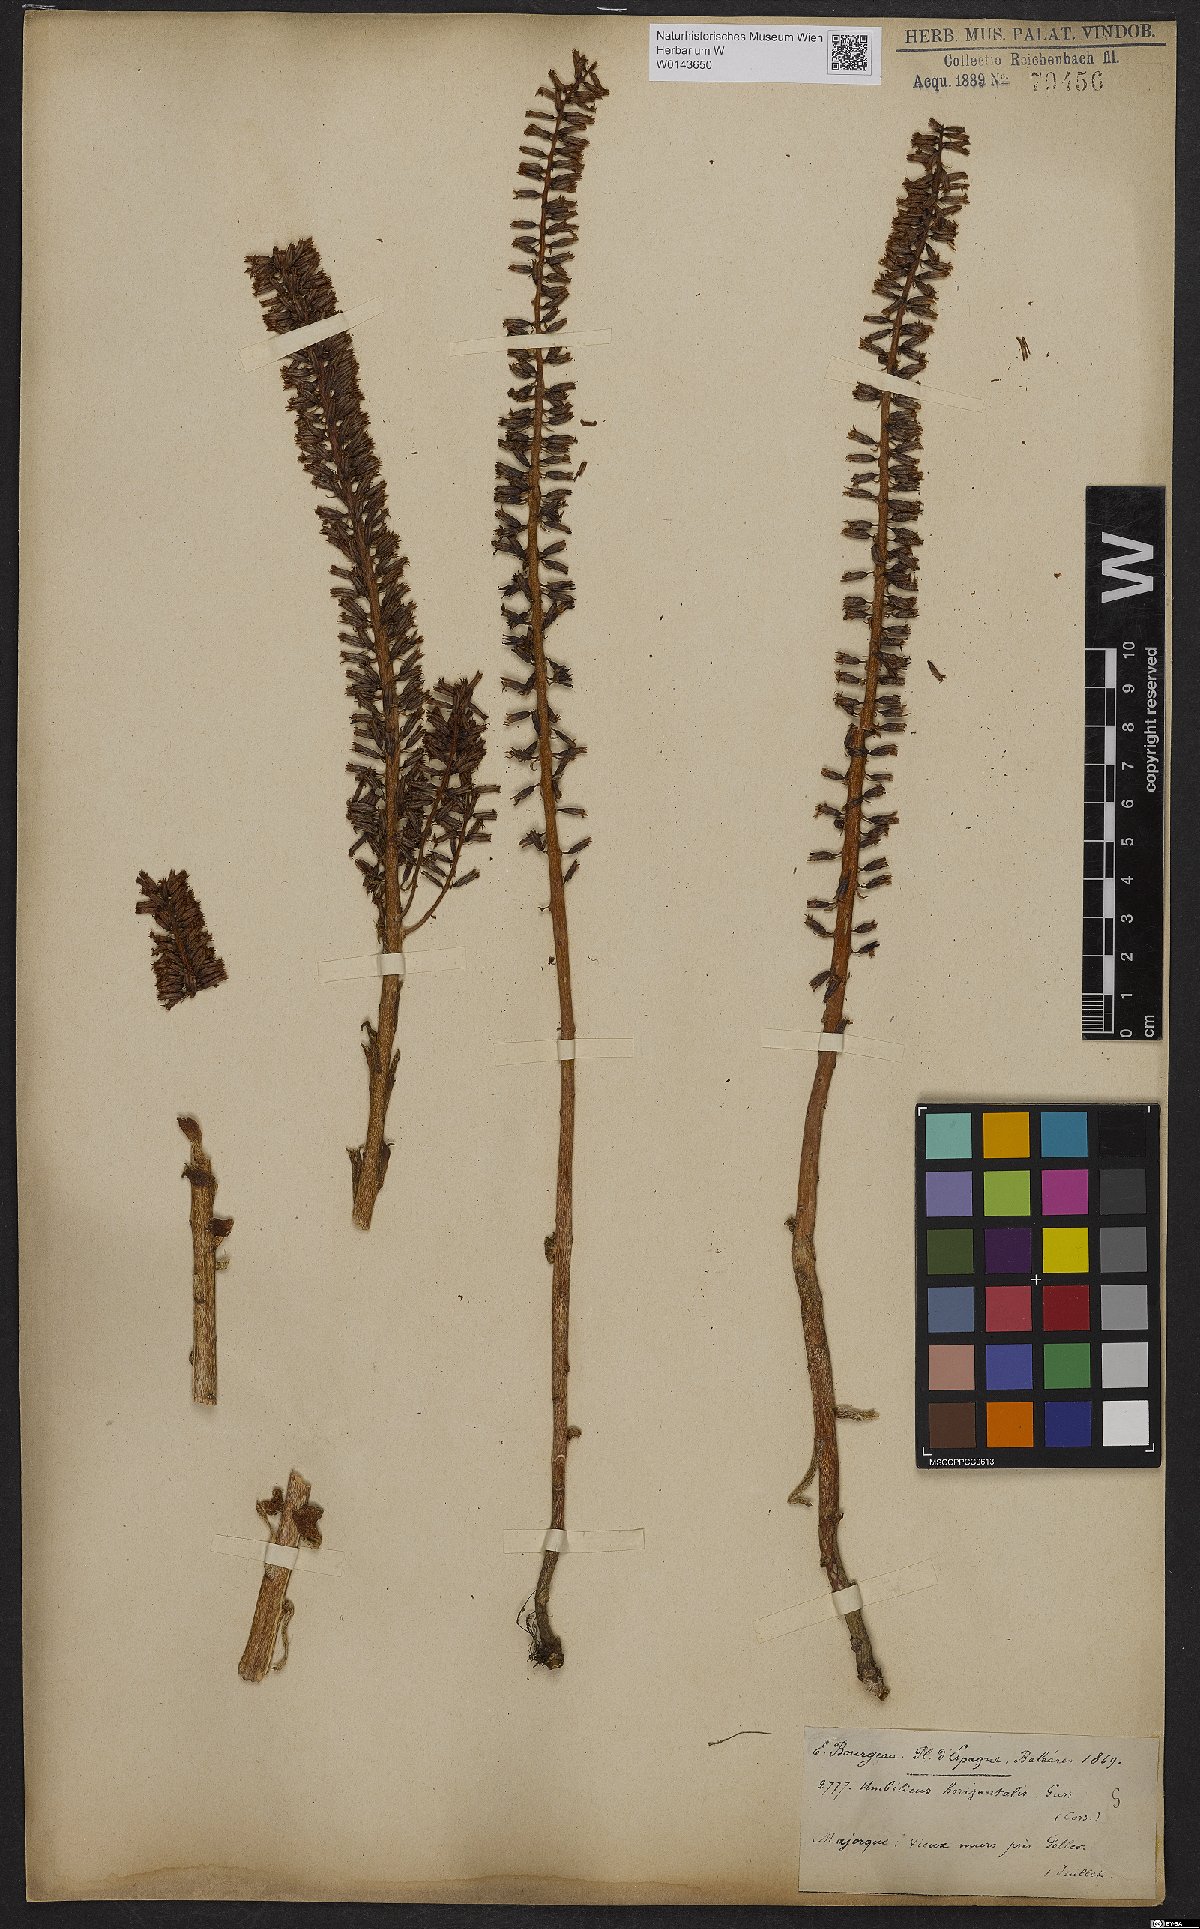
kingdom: Plantae
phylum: Tracheophyta
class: Magnoliopsida
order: Saxifragales
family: Crassulaceae
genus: Umbilicus
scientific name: Umbilicus horizontalis
